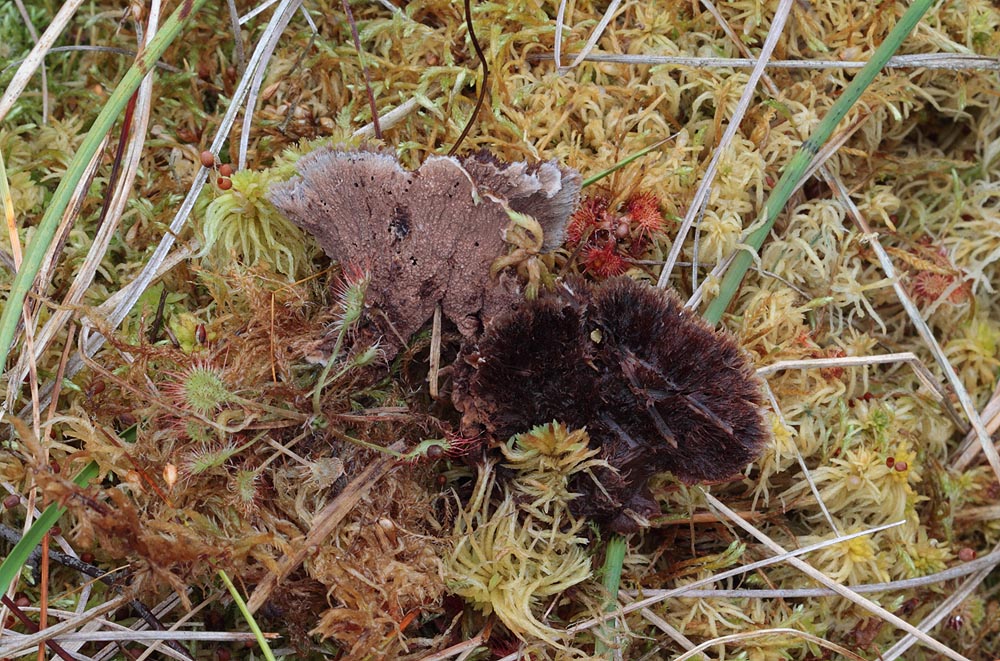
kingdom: Fungi
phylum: Basidiomycota
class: Agaricomycetes
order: Thelephorales
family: Thelephoraceae
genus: Thelephora
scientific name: Thelephora terrestris
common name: fliget frynsesvamp
